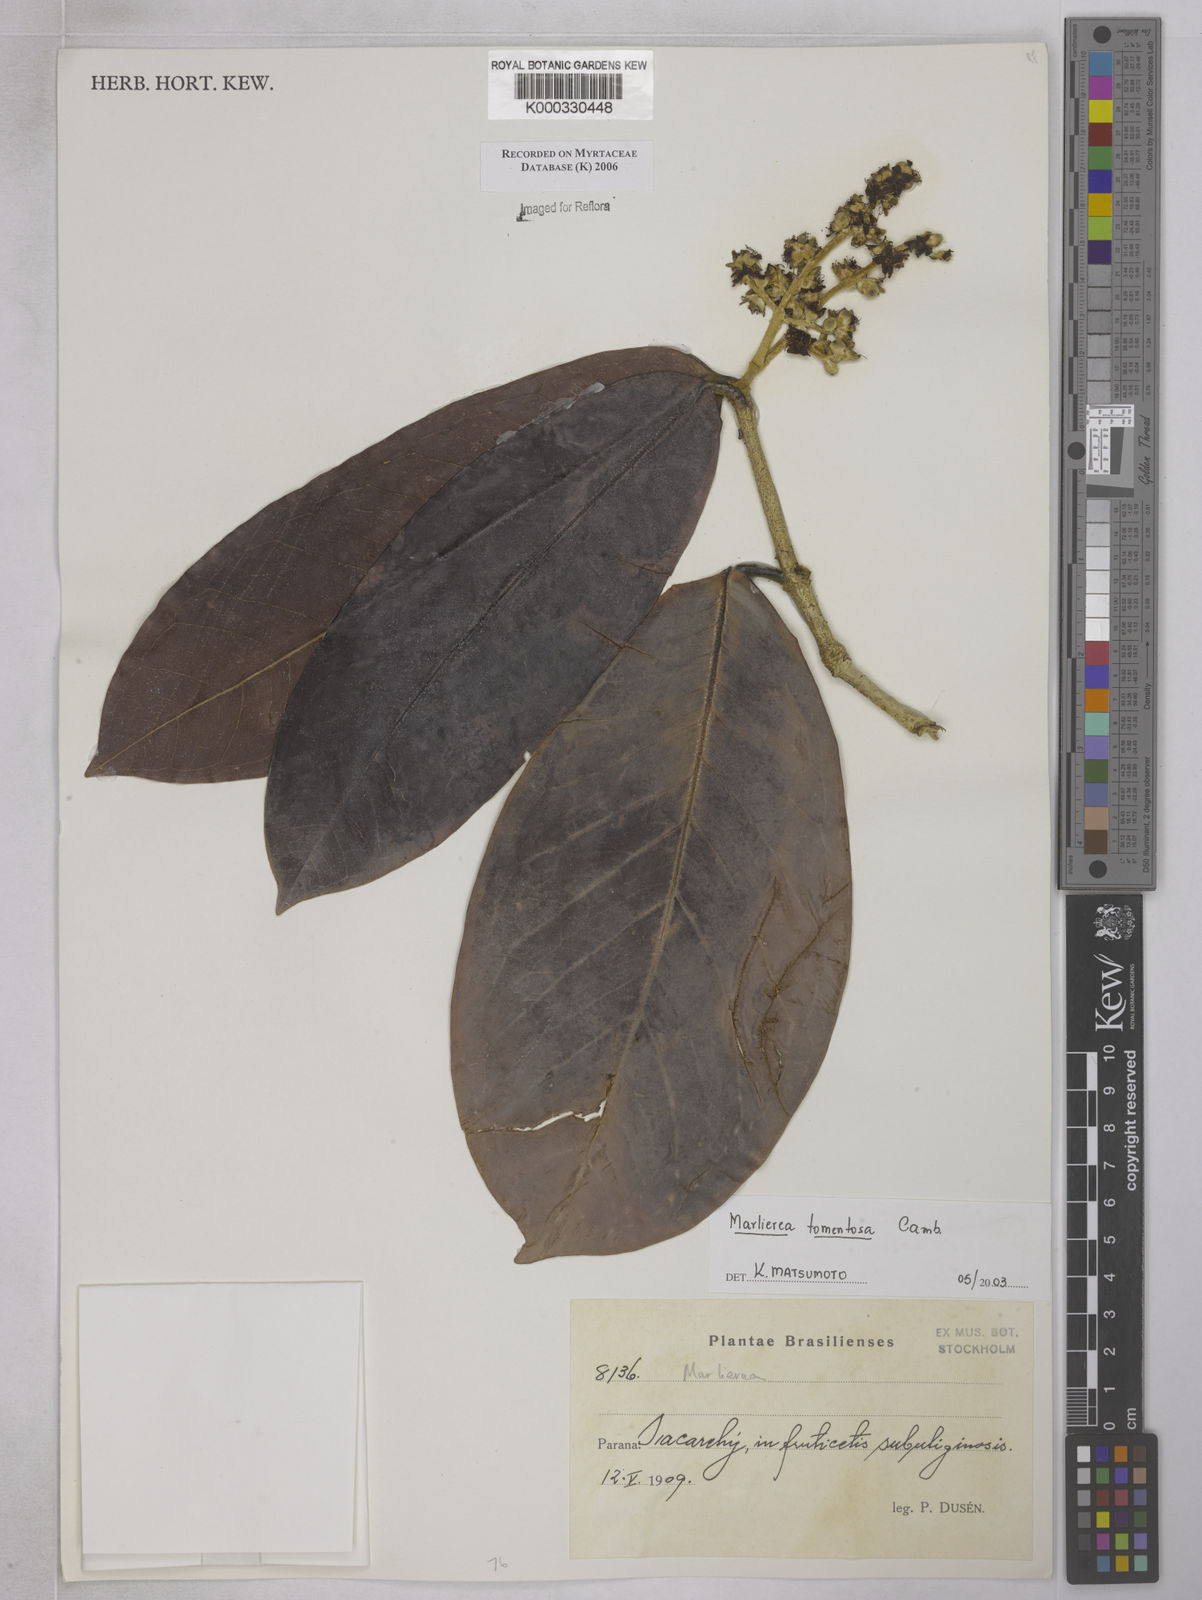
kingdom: Plantae
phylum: Tracheophyta
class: Magnoliopsida
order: Myrtales
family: Myrtaceae
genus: Myrcia
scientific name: Myrcia neotomentosa
